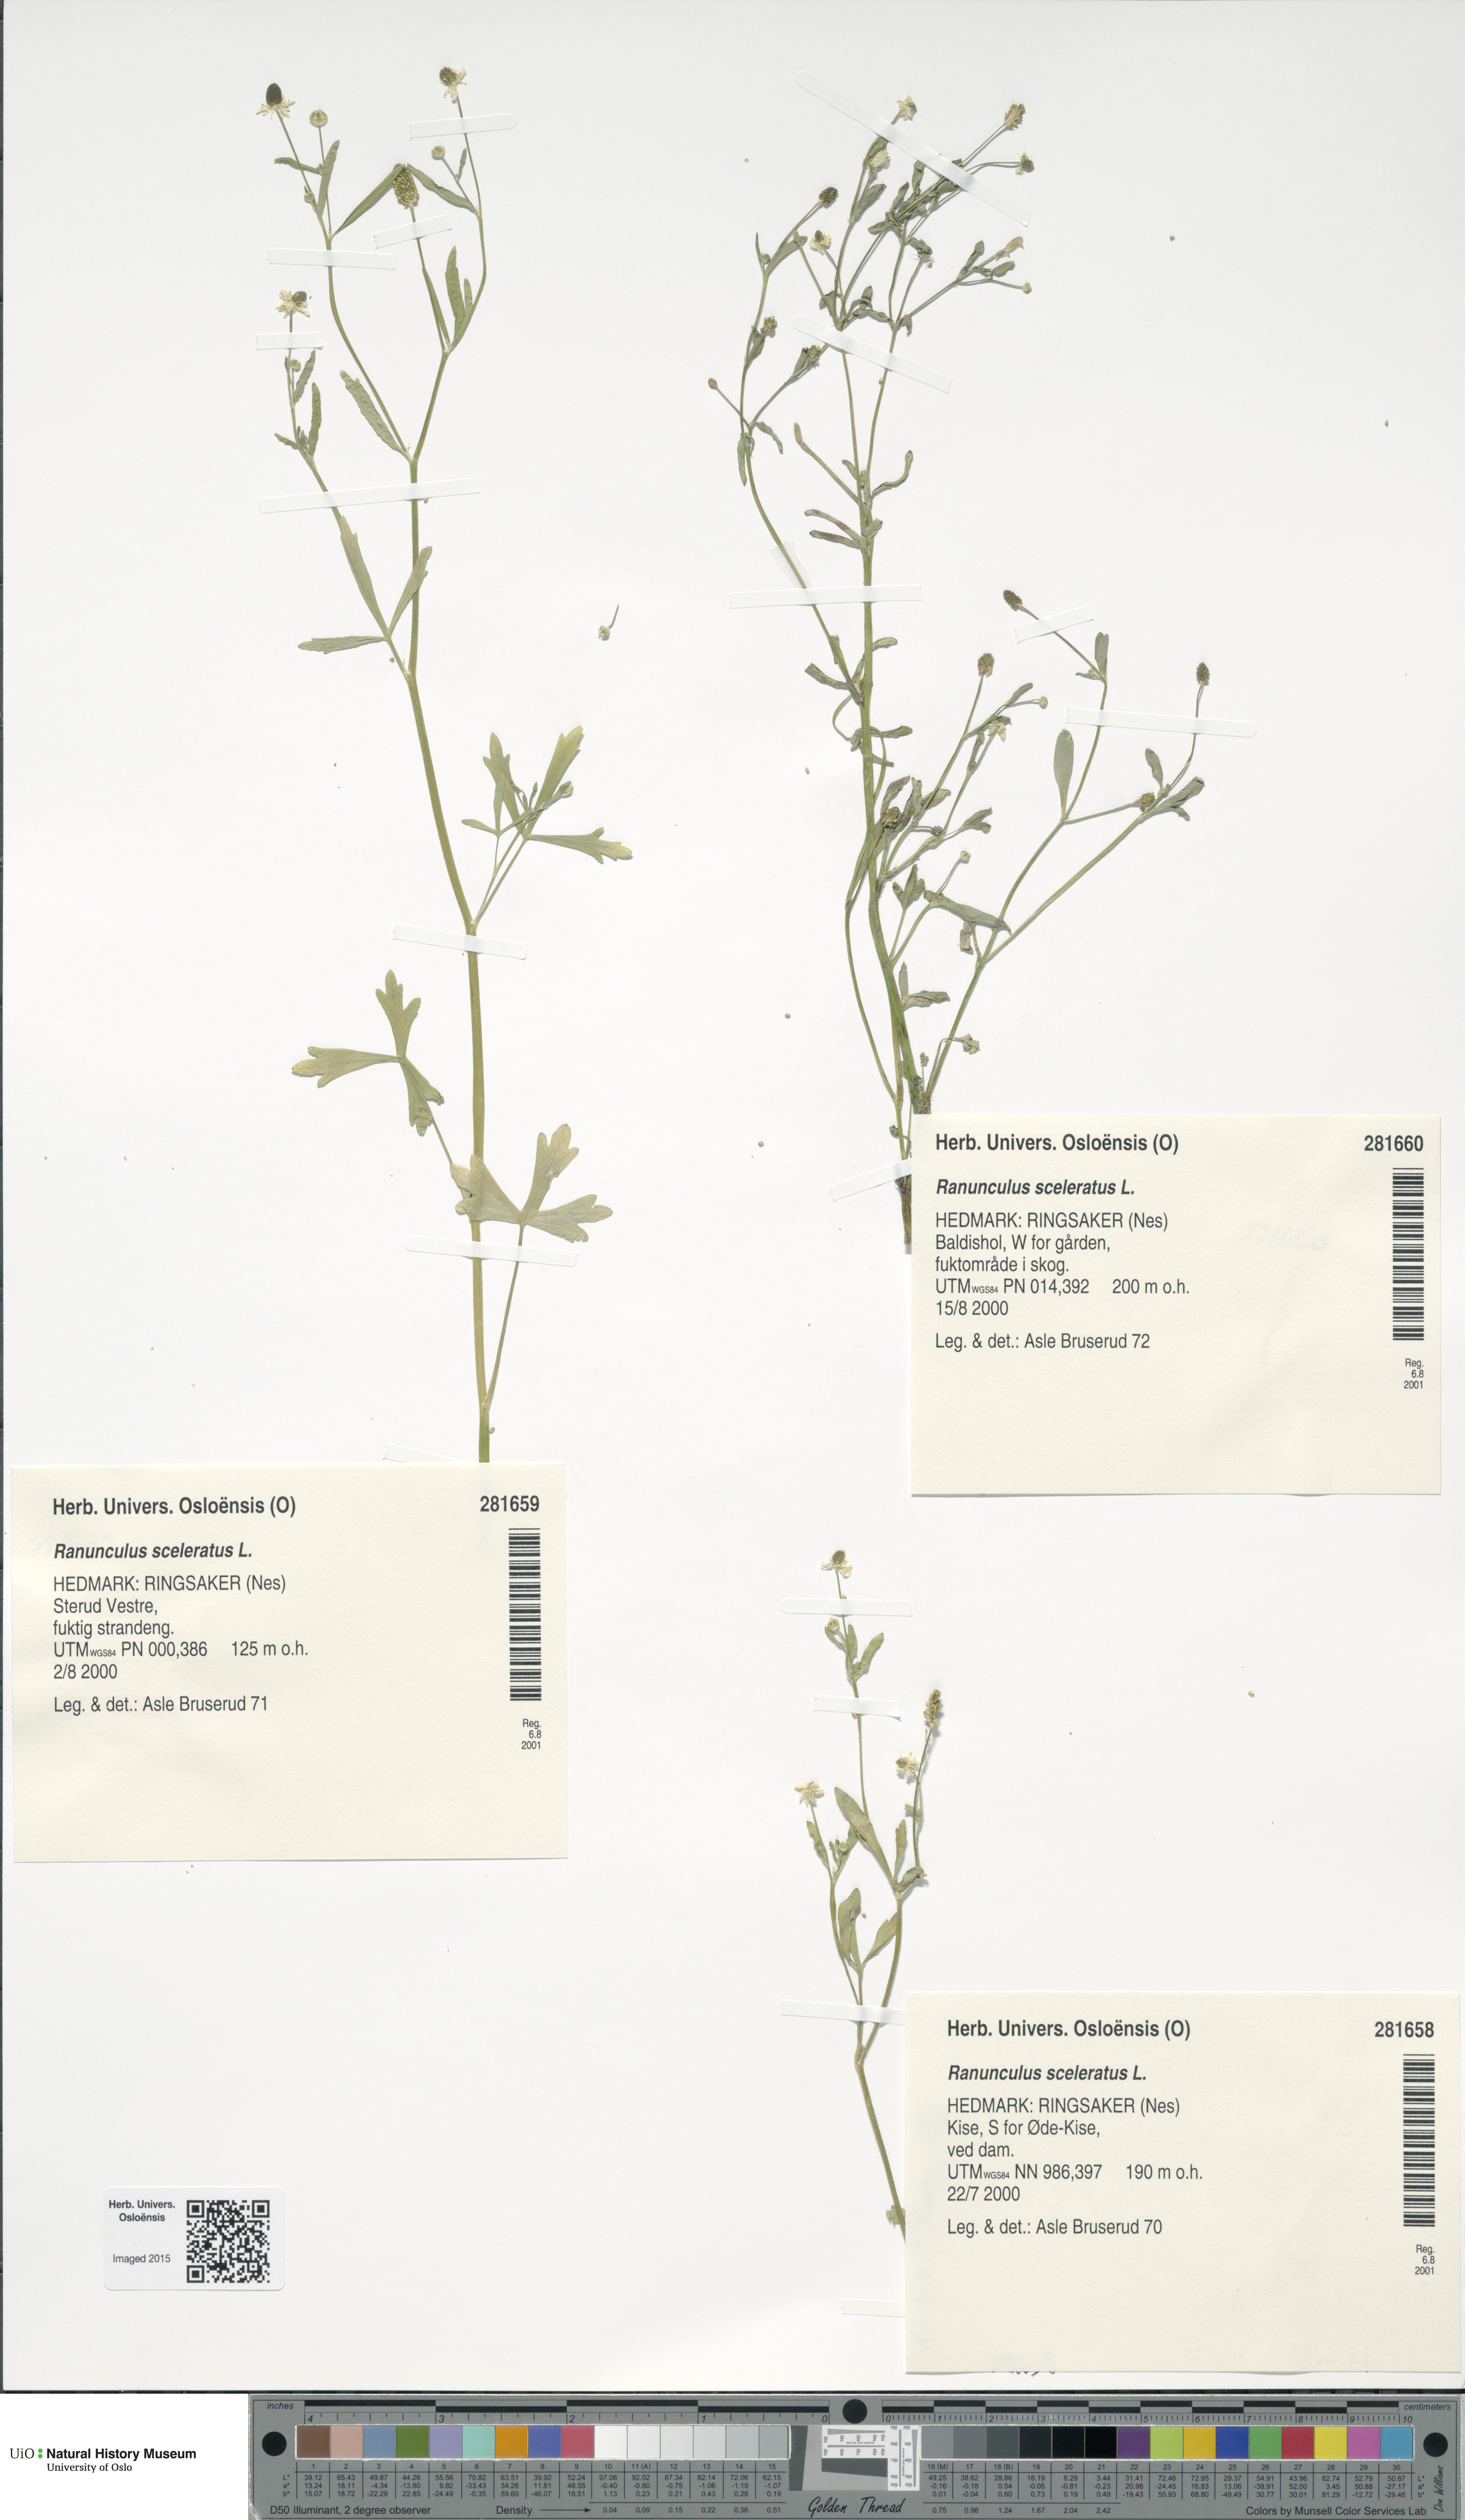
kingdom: Plantae
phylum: Tracheophyta
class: Magnoliopsida
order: Ranunculales
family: Ranunculaceae
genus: Ranunculus
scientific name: Ranunculus sceleratus
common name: Celery-leaved buttercup
